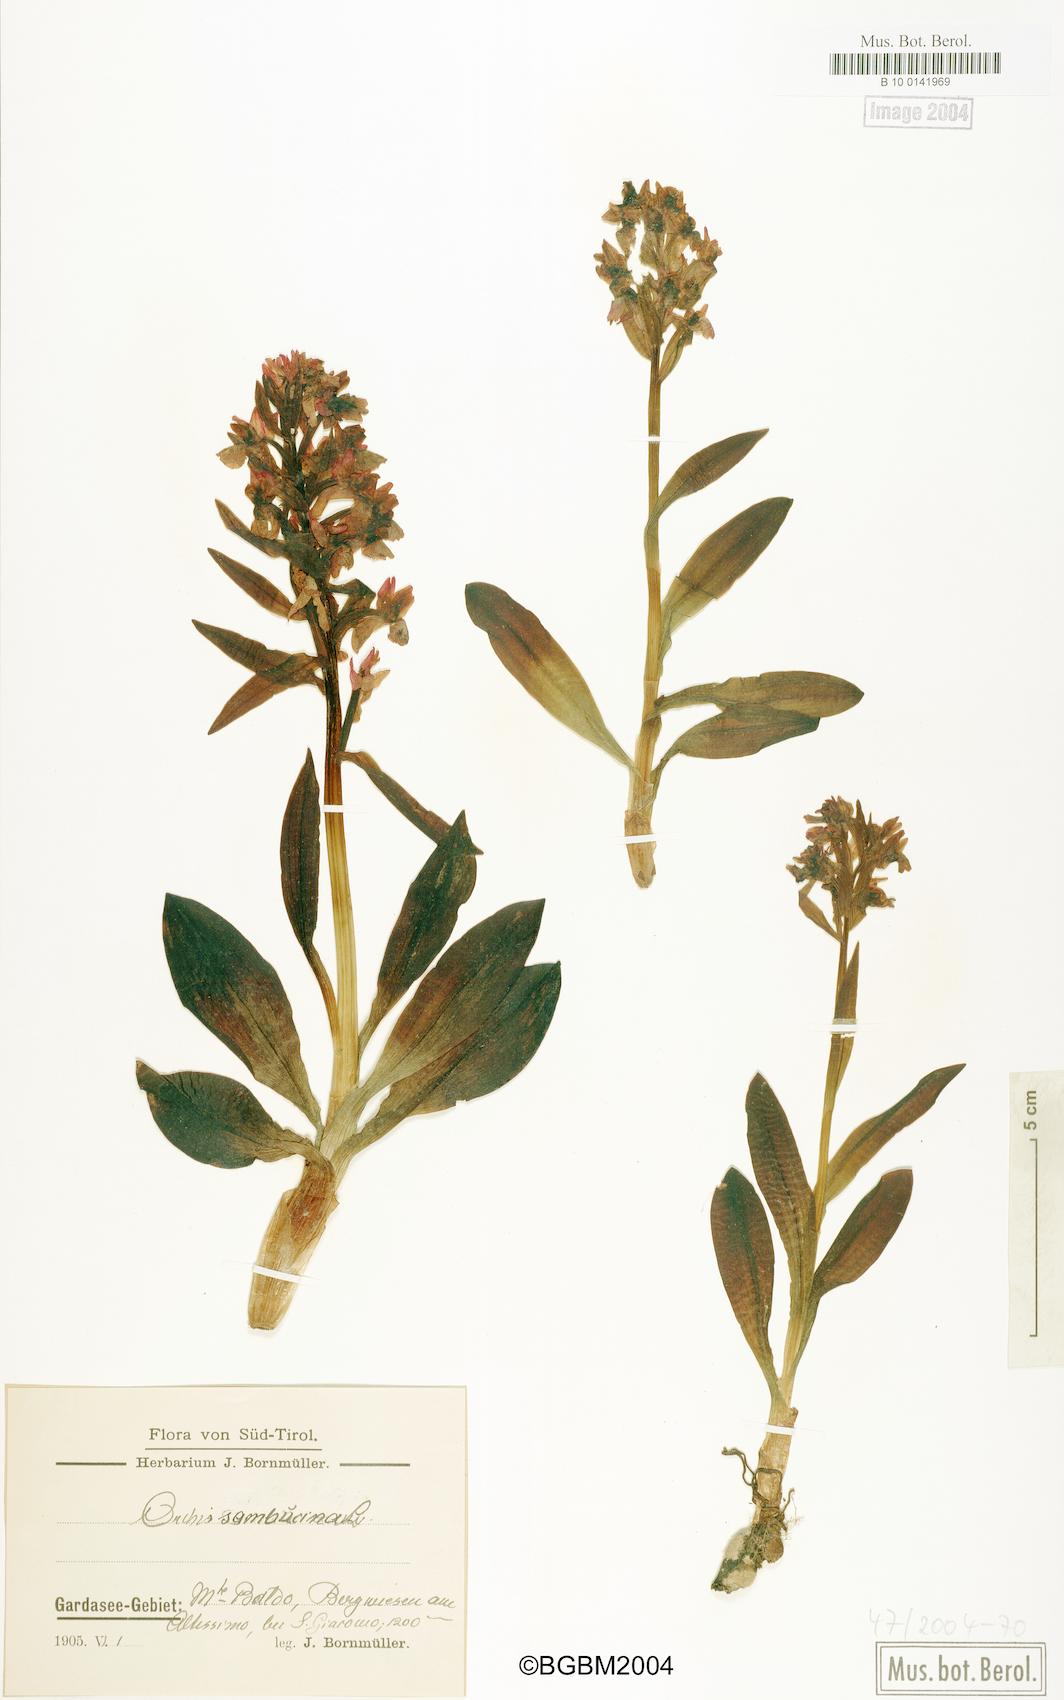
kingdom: Plantae
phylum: Tracheophyta
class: Liliopsida
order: Asparagales
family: Orchidaceae
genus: Dactylorhiza
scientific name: Dactylorhiza sambucina
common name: Elder-flowered orchid
